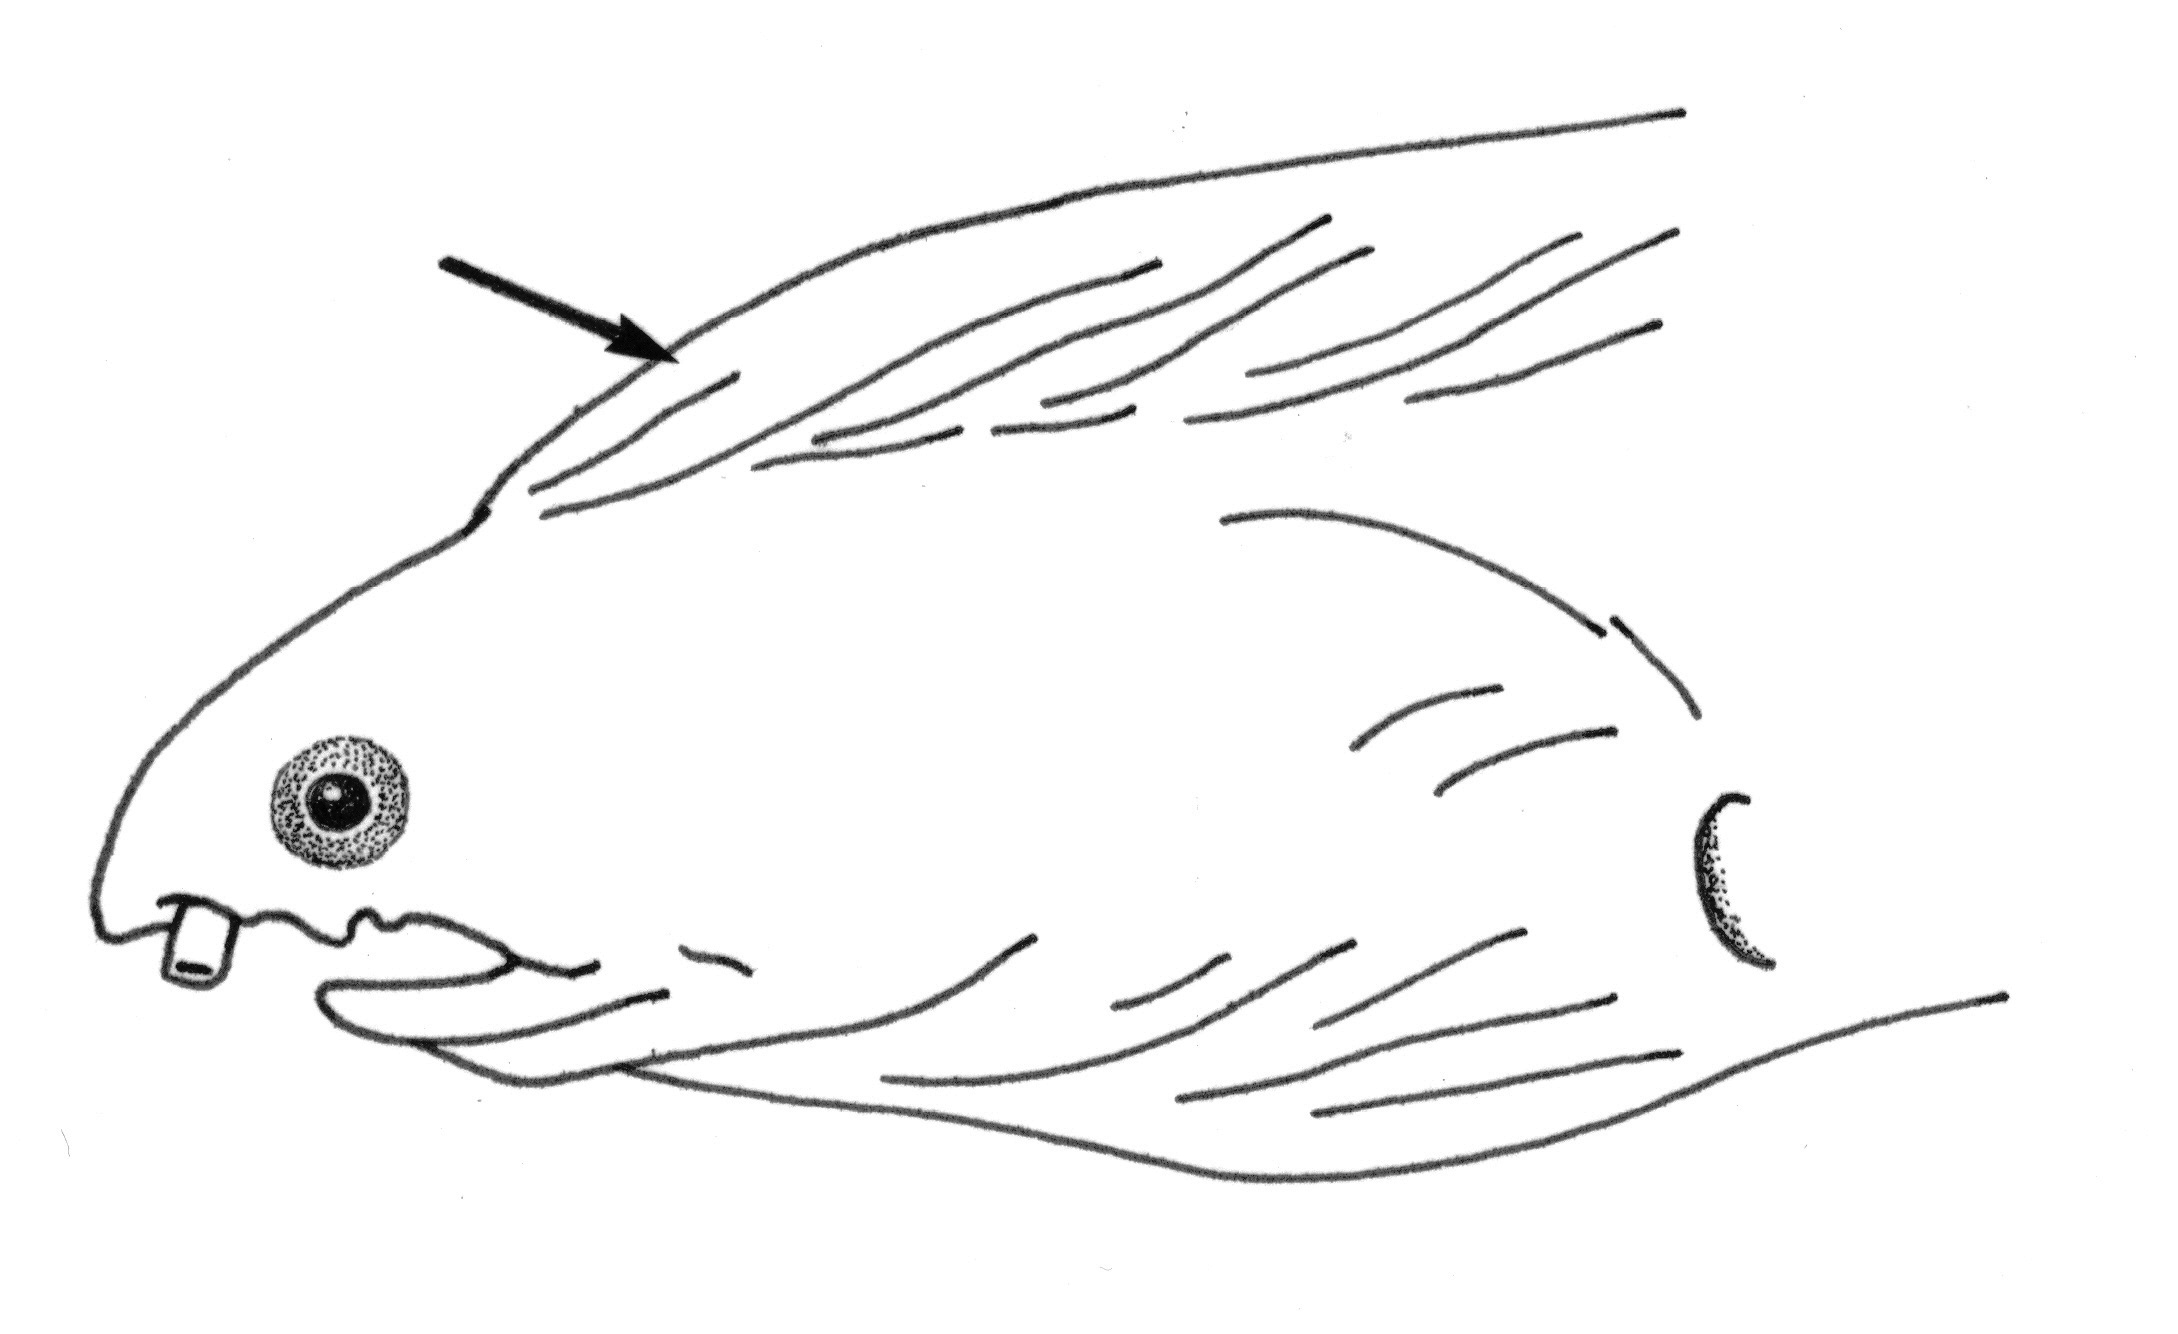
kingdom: Animalia
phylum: Chordata
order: Anguilliformes
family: Ophichthidae
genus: Xestochilus
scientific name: Xestochilus nebulosus
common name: Nebulous snake eel
